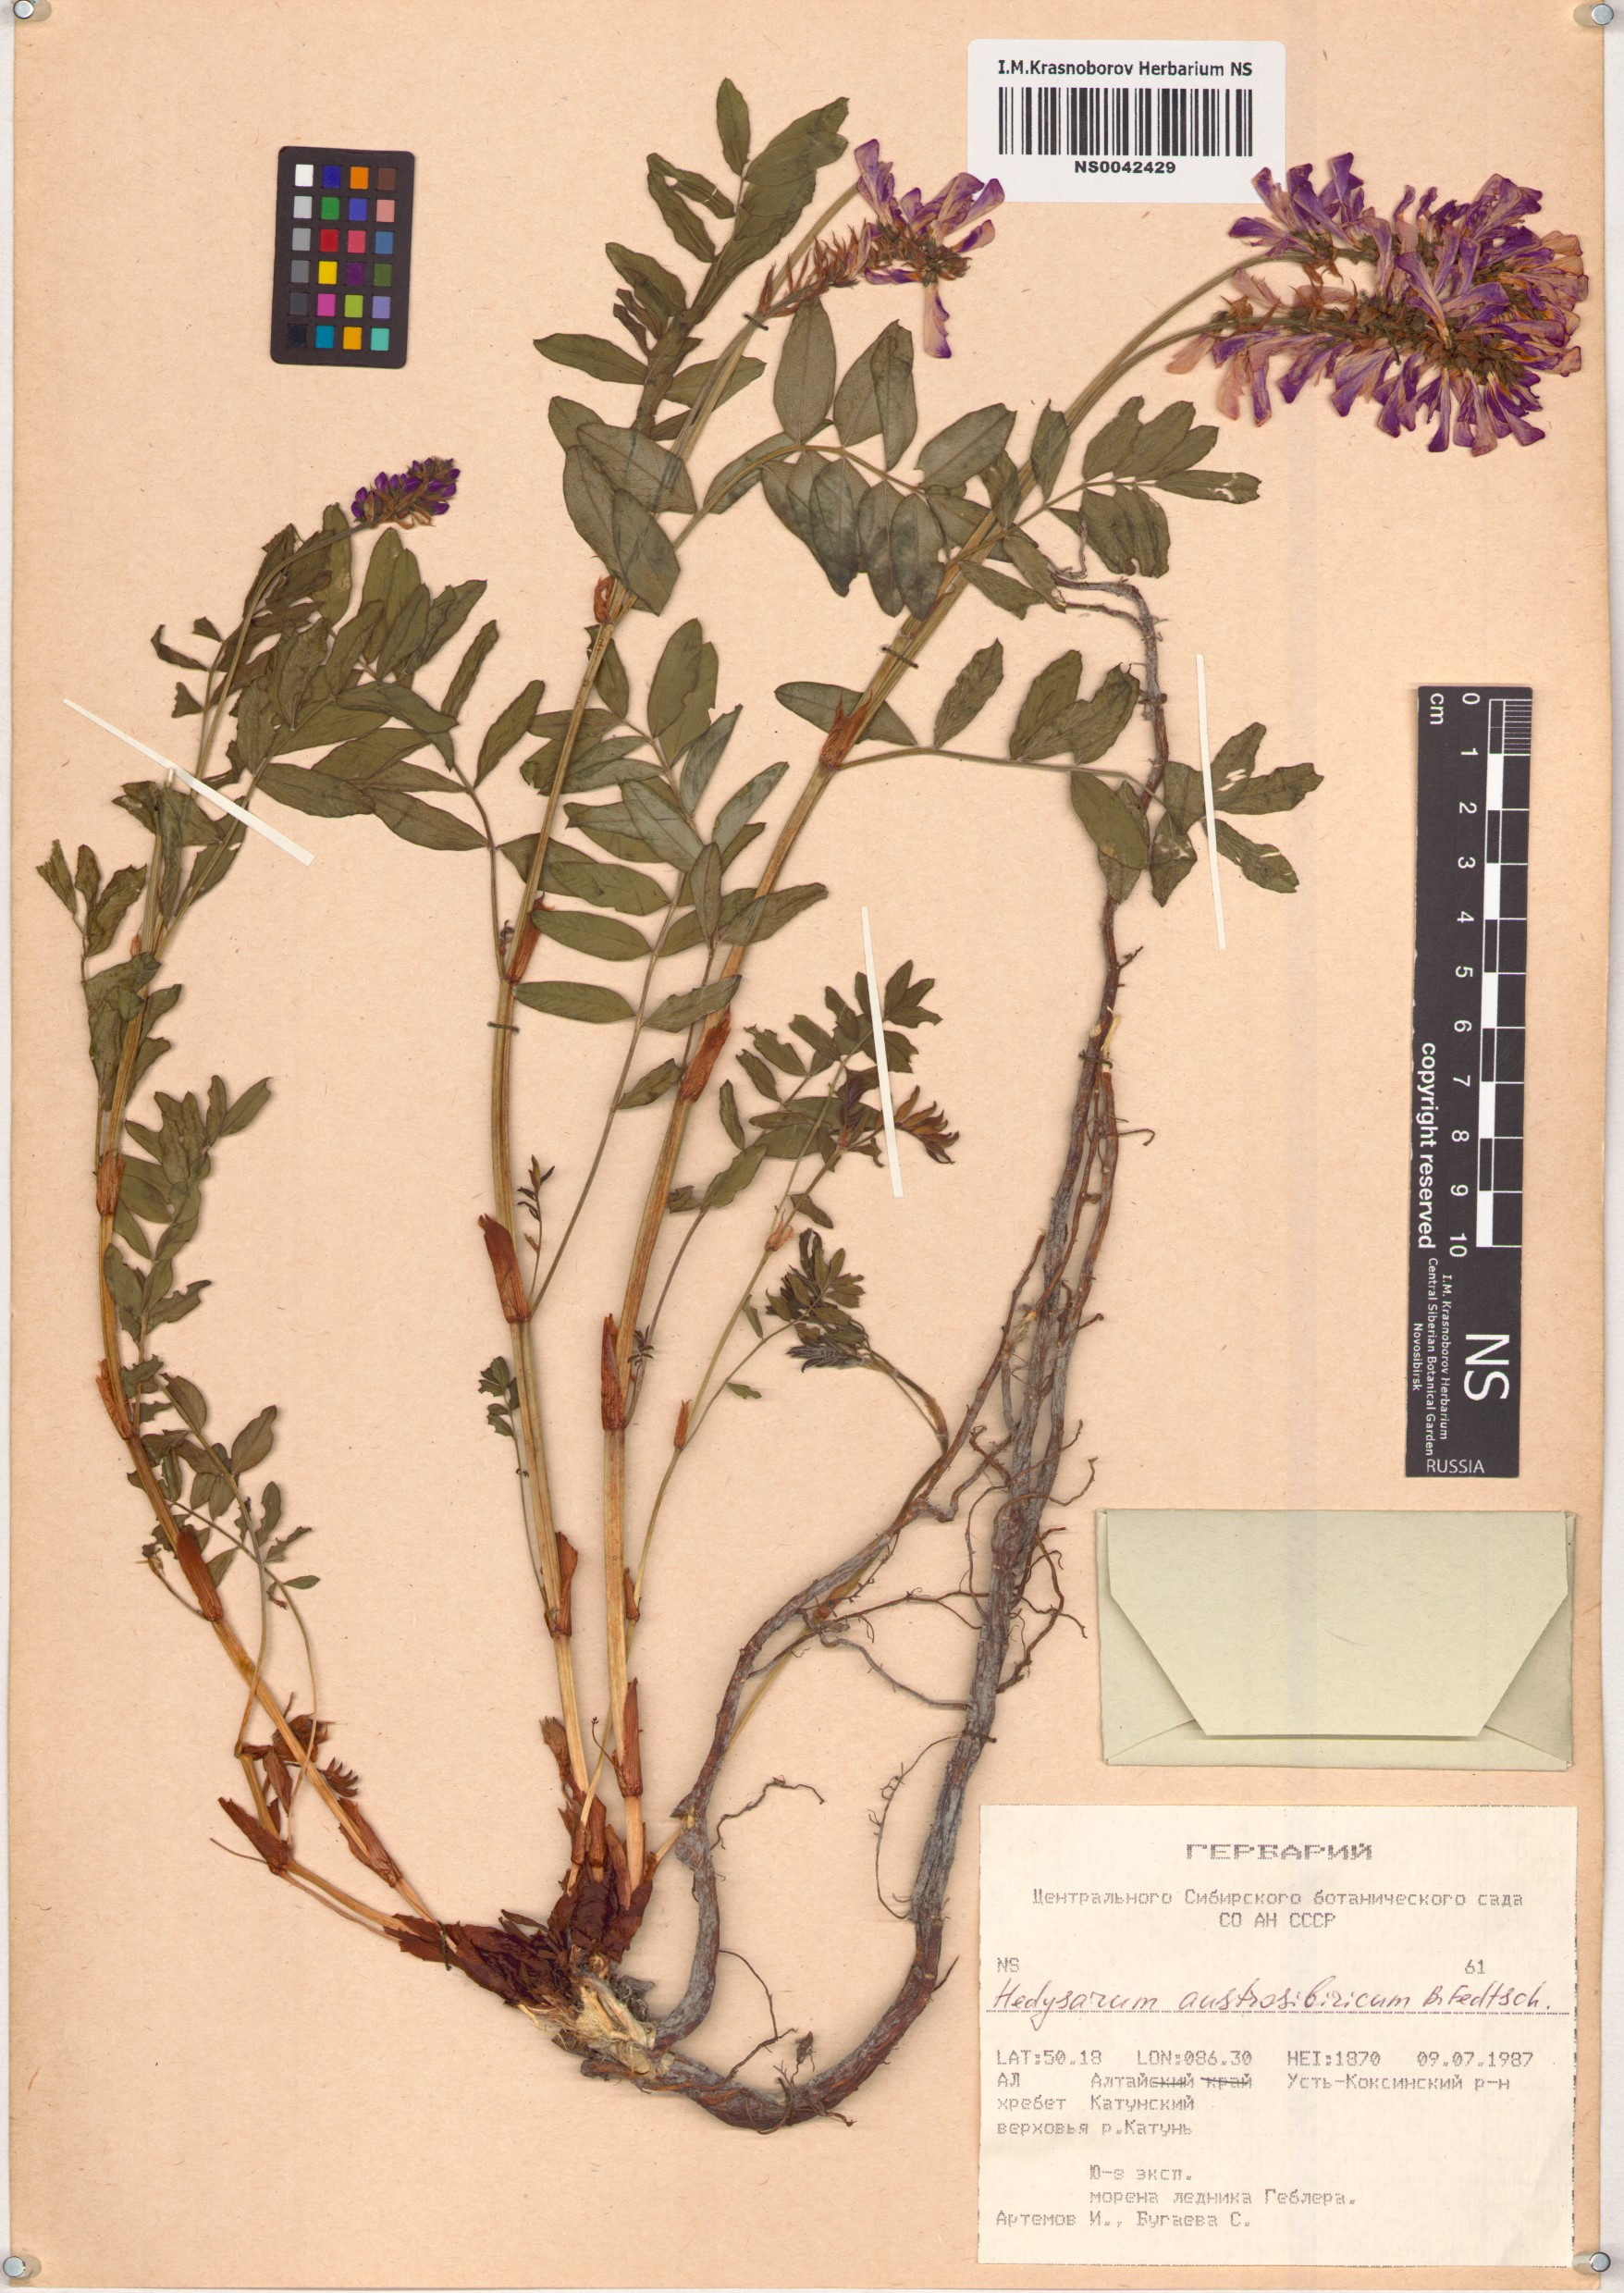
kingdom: Plantae
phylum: Tracheophyta
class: Magnoliopsida
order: Fabales
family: Fabaceae
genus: Hedysarum
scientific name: Hedysarum neglectum
